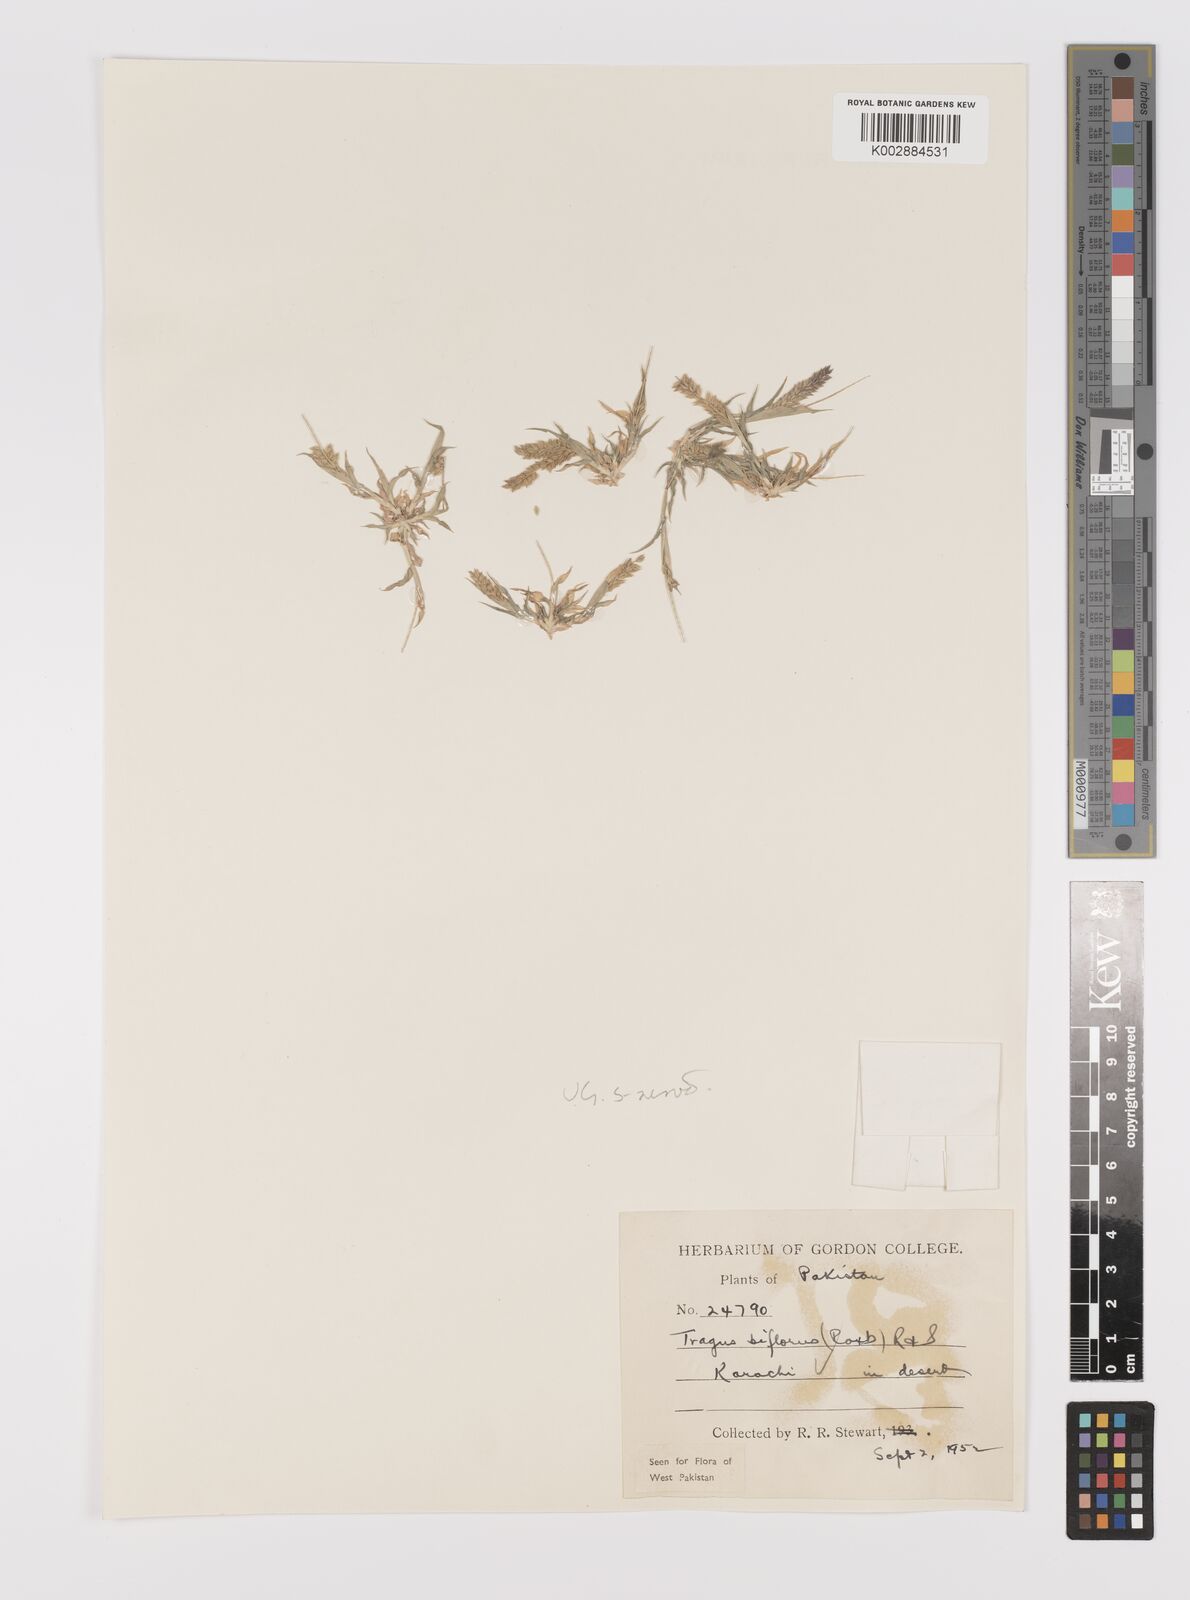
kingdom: Plantae
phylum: Tracheophyta
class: Liliopsida
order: Poales
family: Poaceae
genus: Tragus
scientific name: Tragus mongolorum
